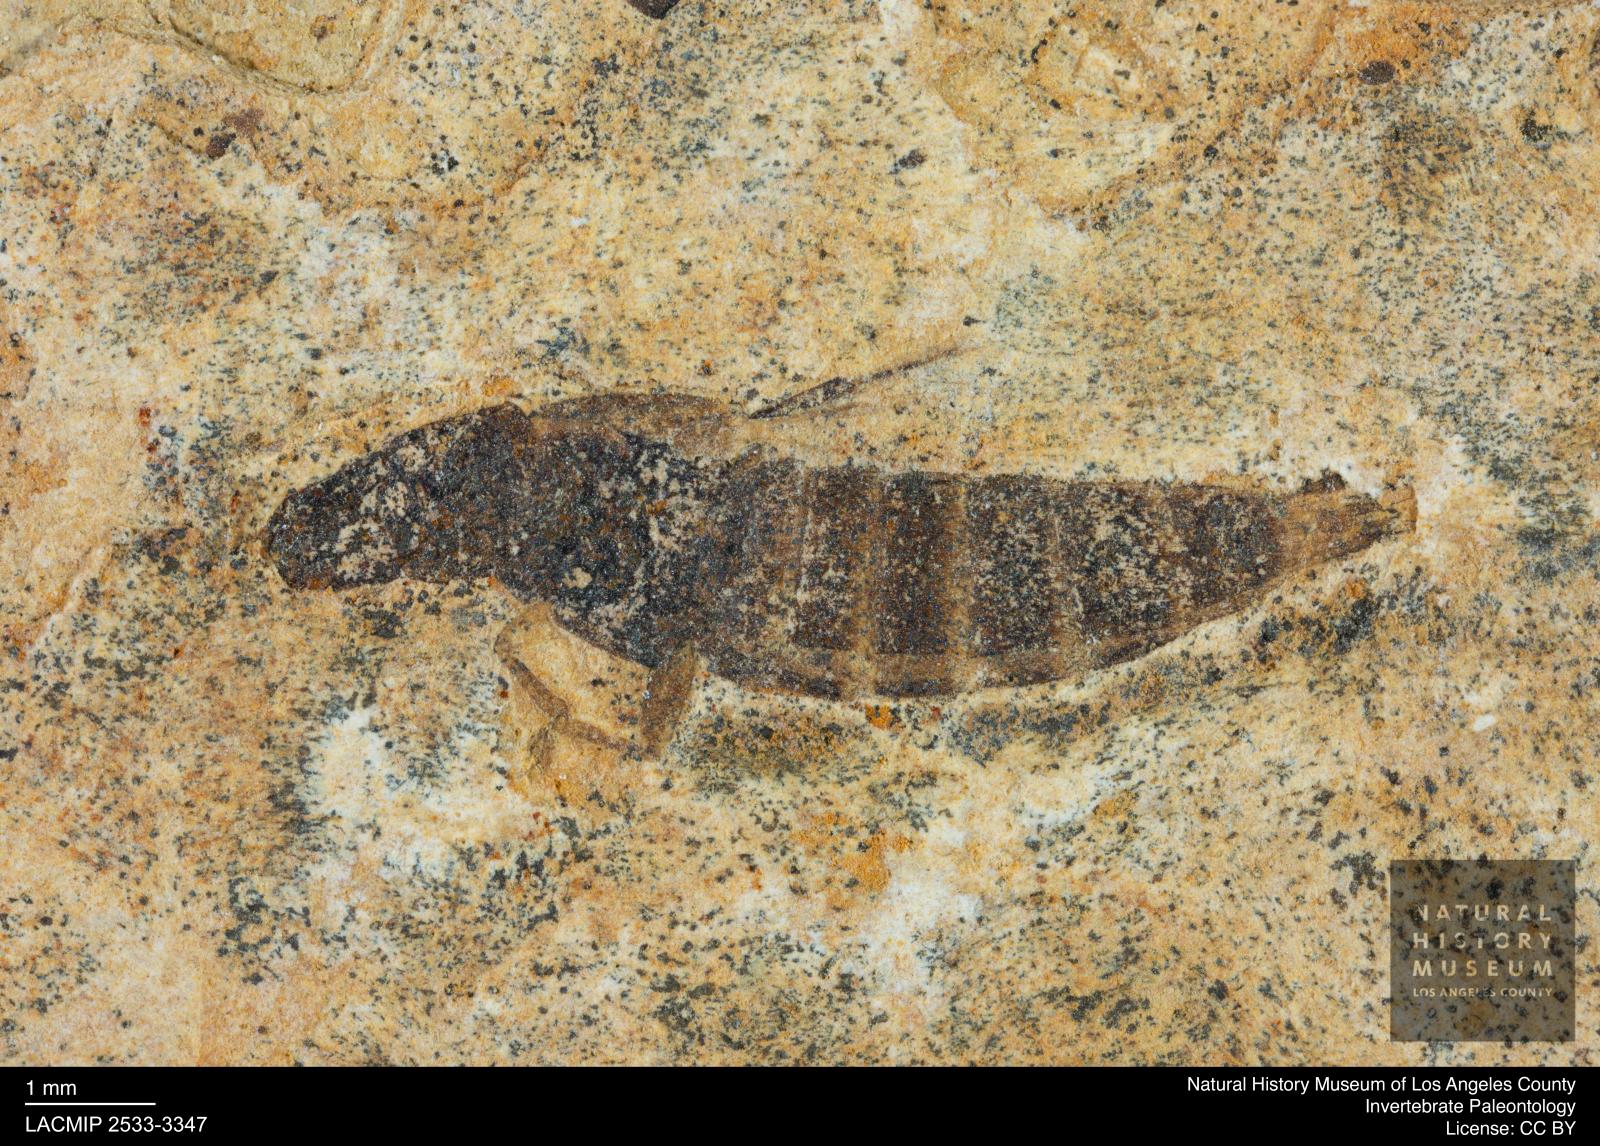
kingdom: Animalia
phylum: Arthropoda
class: Insecta
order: Coleoptera
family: Staphylinidae
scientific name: Staphylinidae
